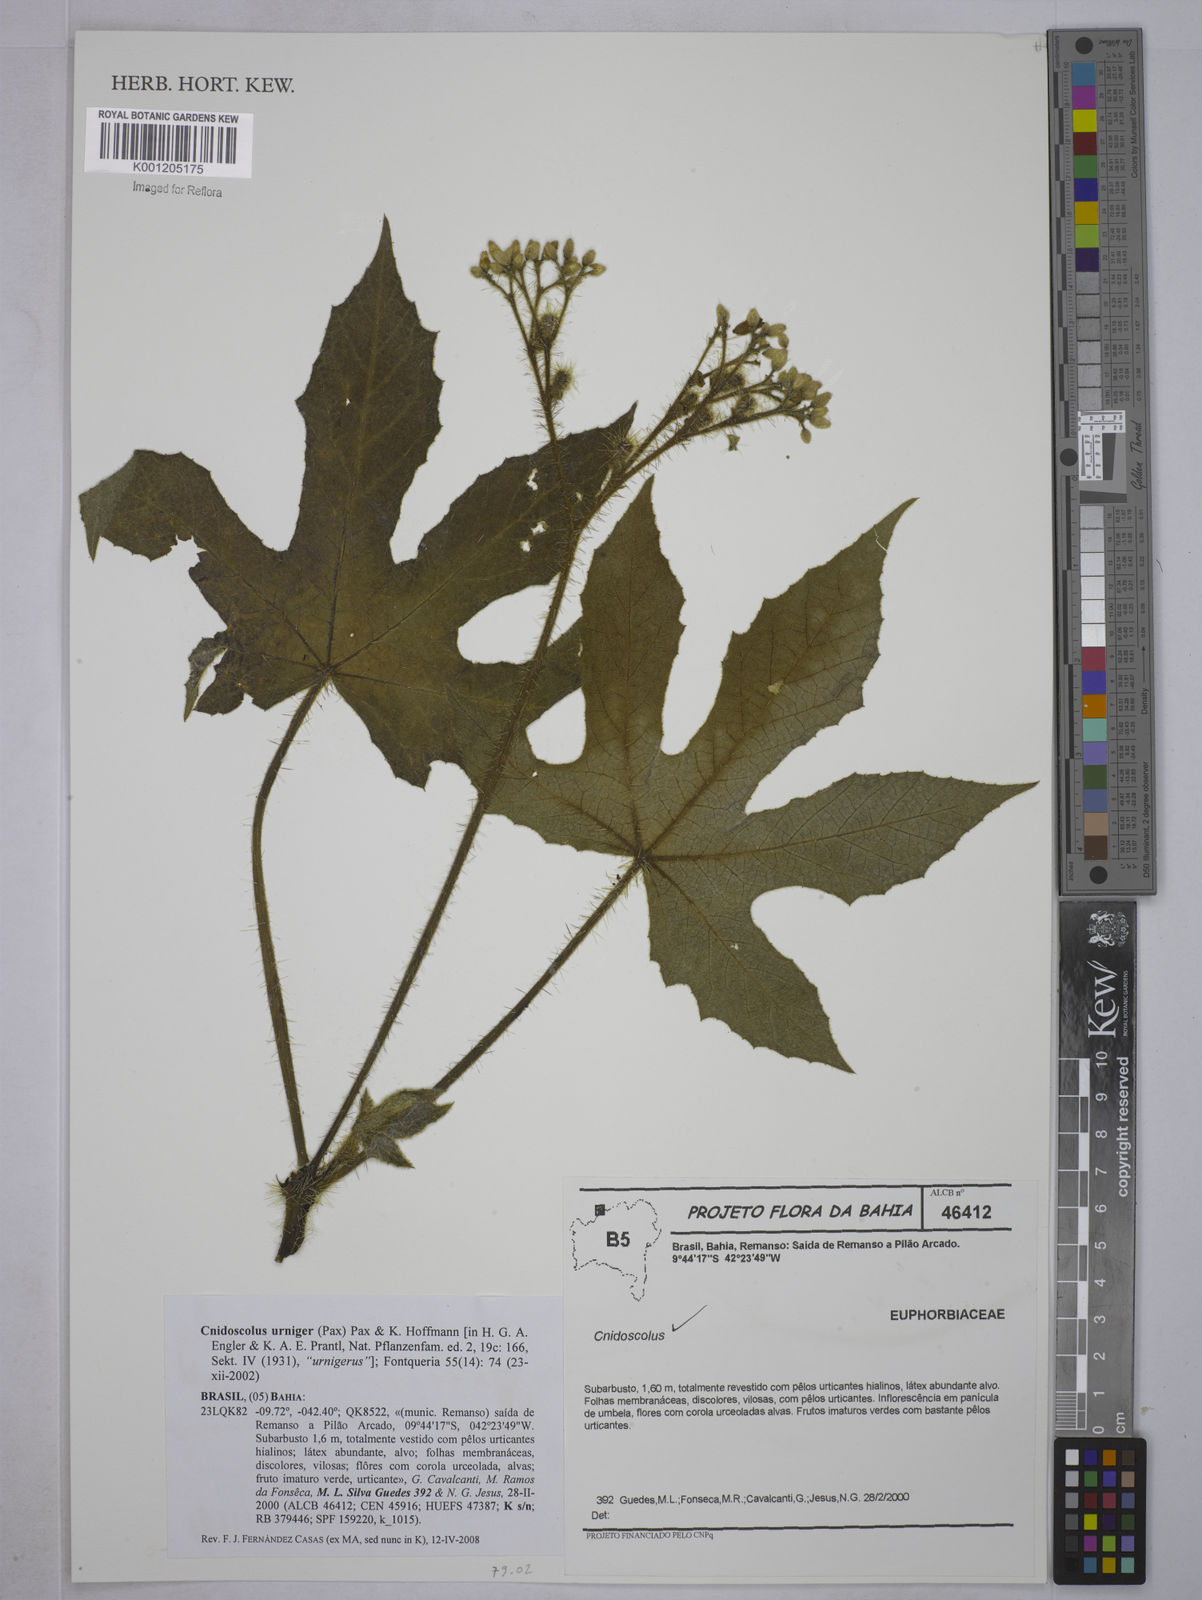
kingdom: Plantae
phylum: Tracheophyta
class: Magnoliopsida
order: Malpighiales
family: Euphorbiaceae
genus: Cnidoscolus
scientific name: Cnidoscolus
